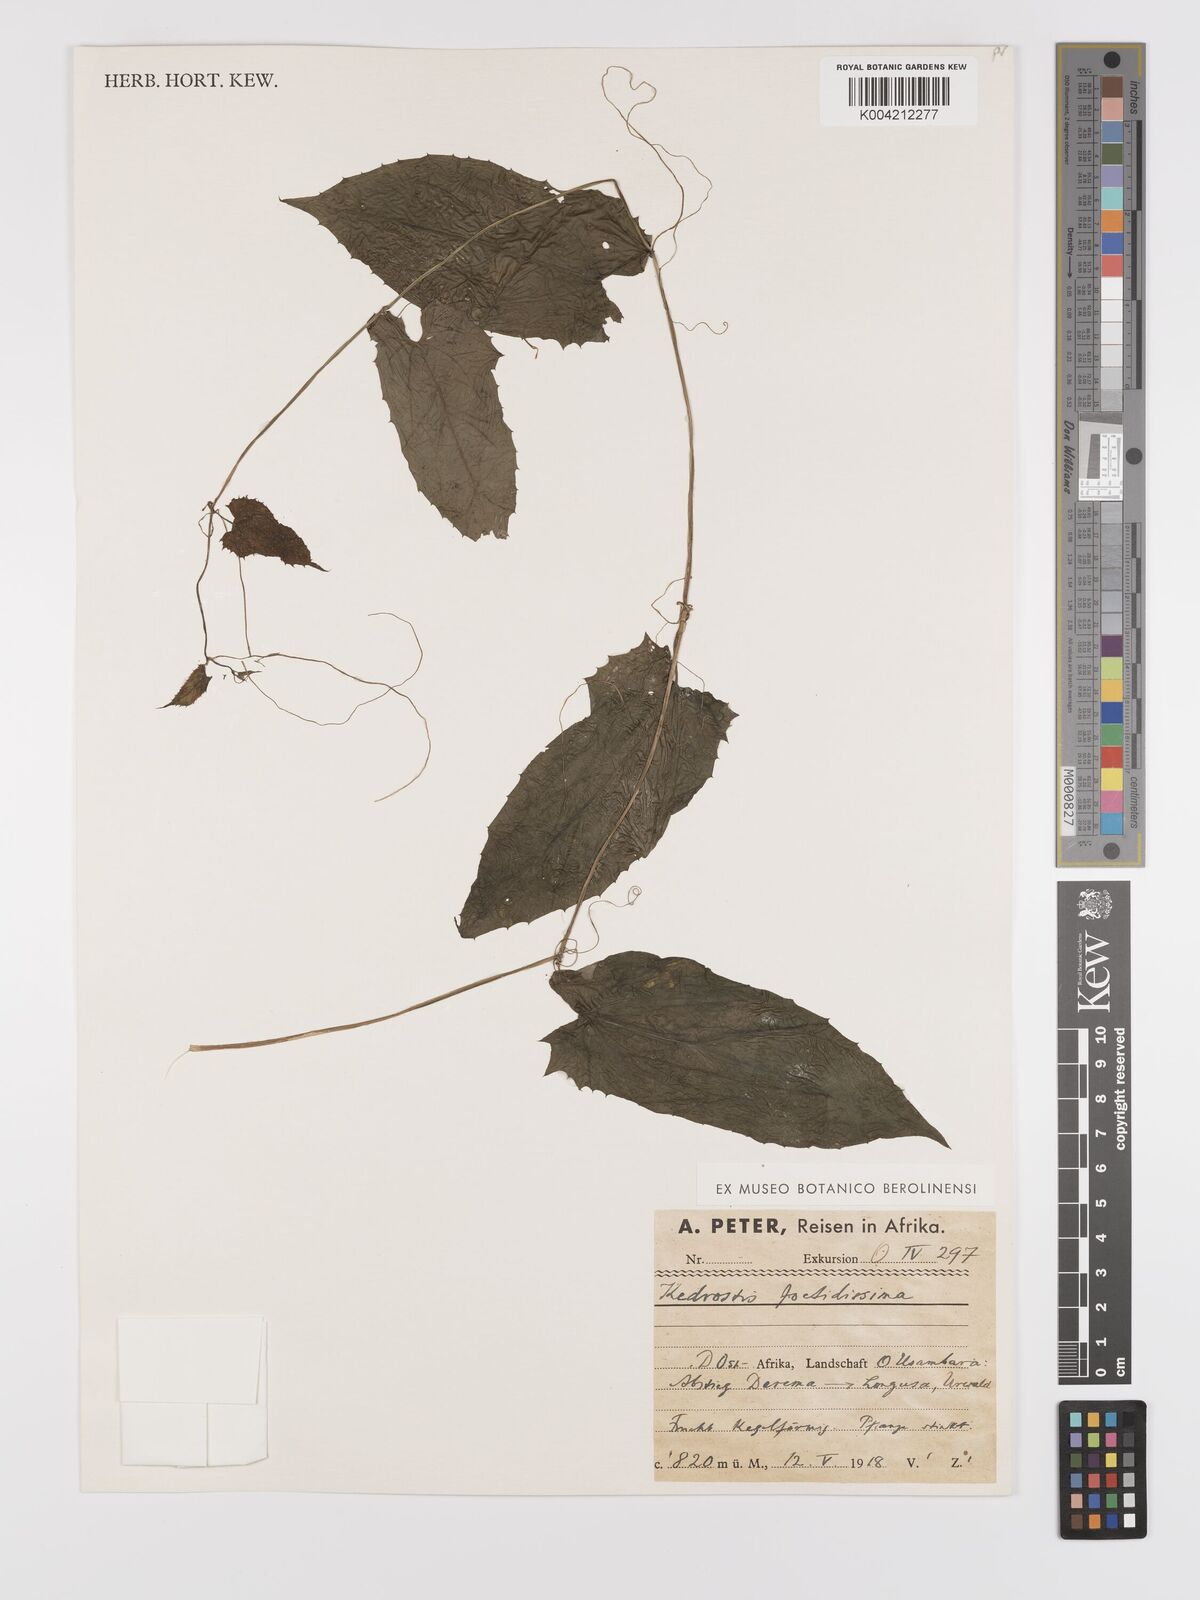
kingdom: Plantae
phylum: Tracheophyta
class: Magnoliopsida
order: Cucurbitales
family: Cucurbitaceae
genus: Kedrostis
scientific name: Kedrostis heterophylla
